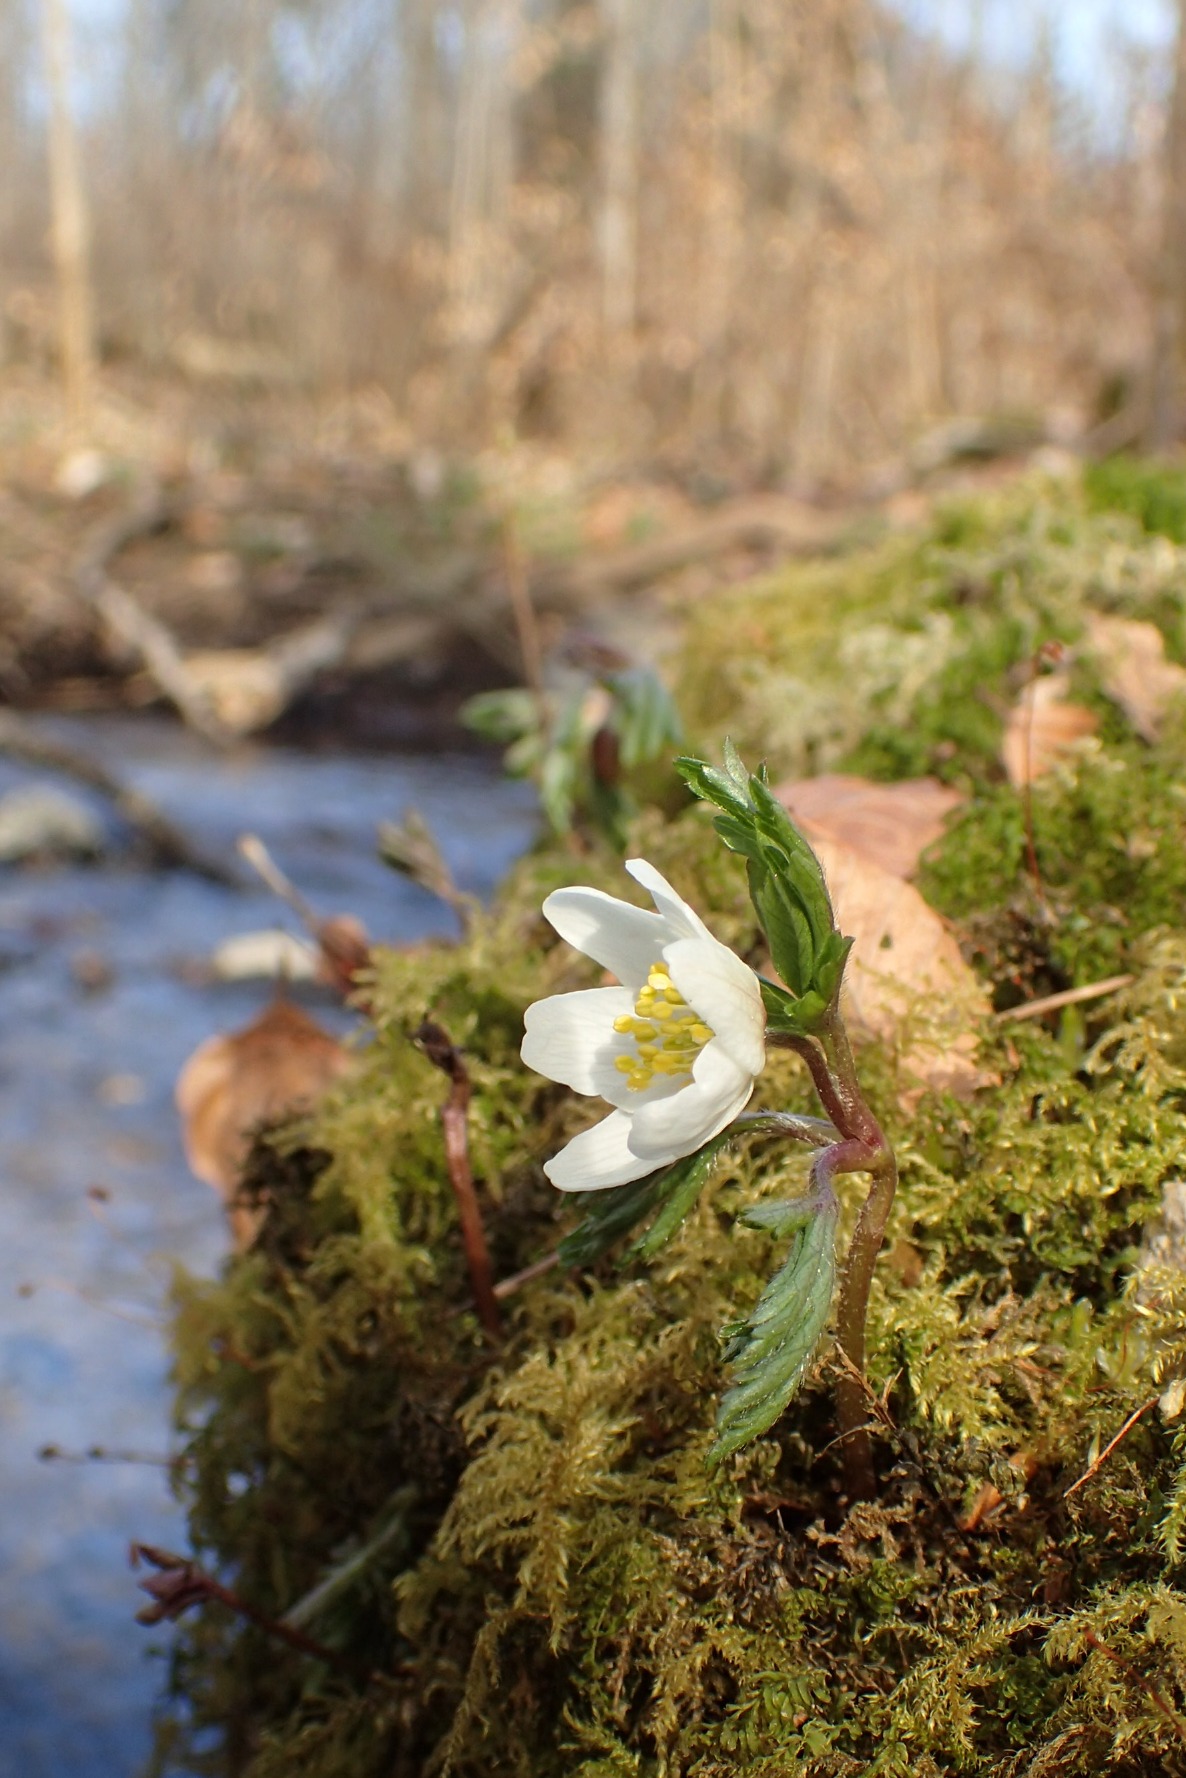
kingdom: Plantae
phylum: Tracheophyta
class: Magnoliopsida
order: Ranunculales
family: Ranunculaceae
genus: Anemone
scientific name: Anemone nemorosa
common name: Hvid anemone
